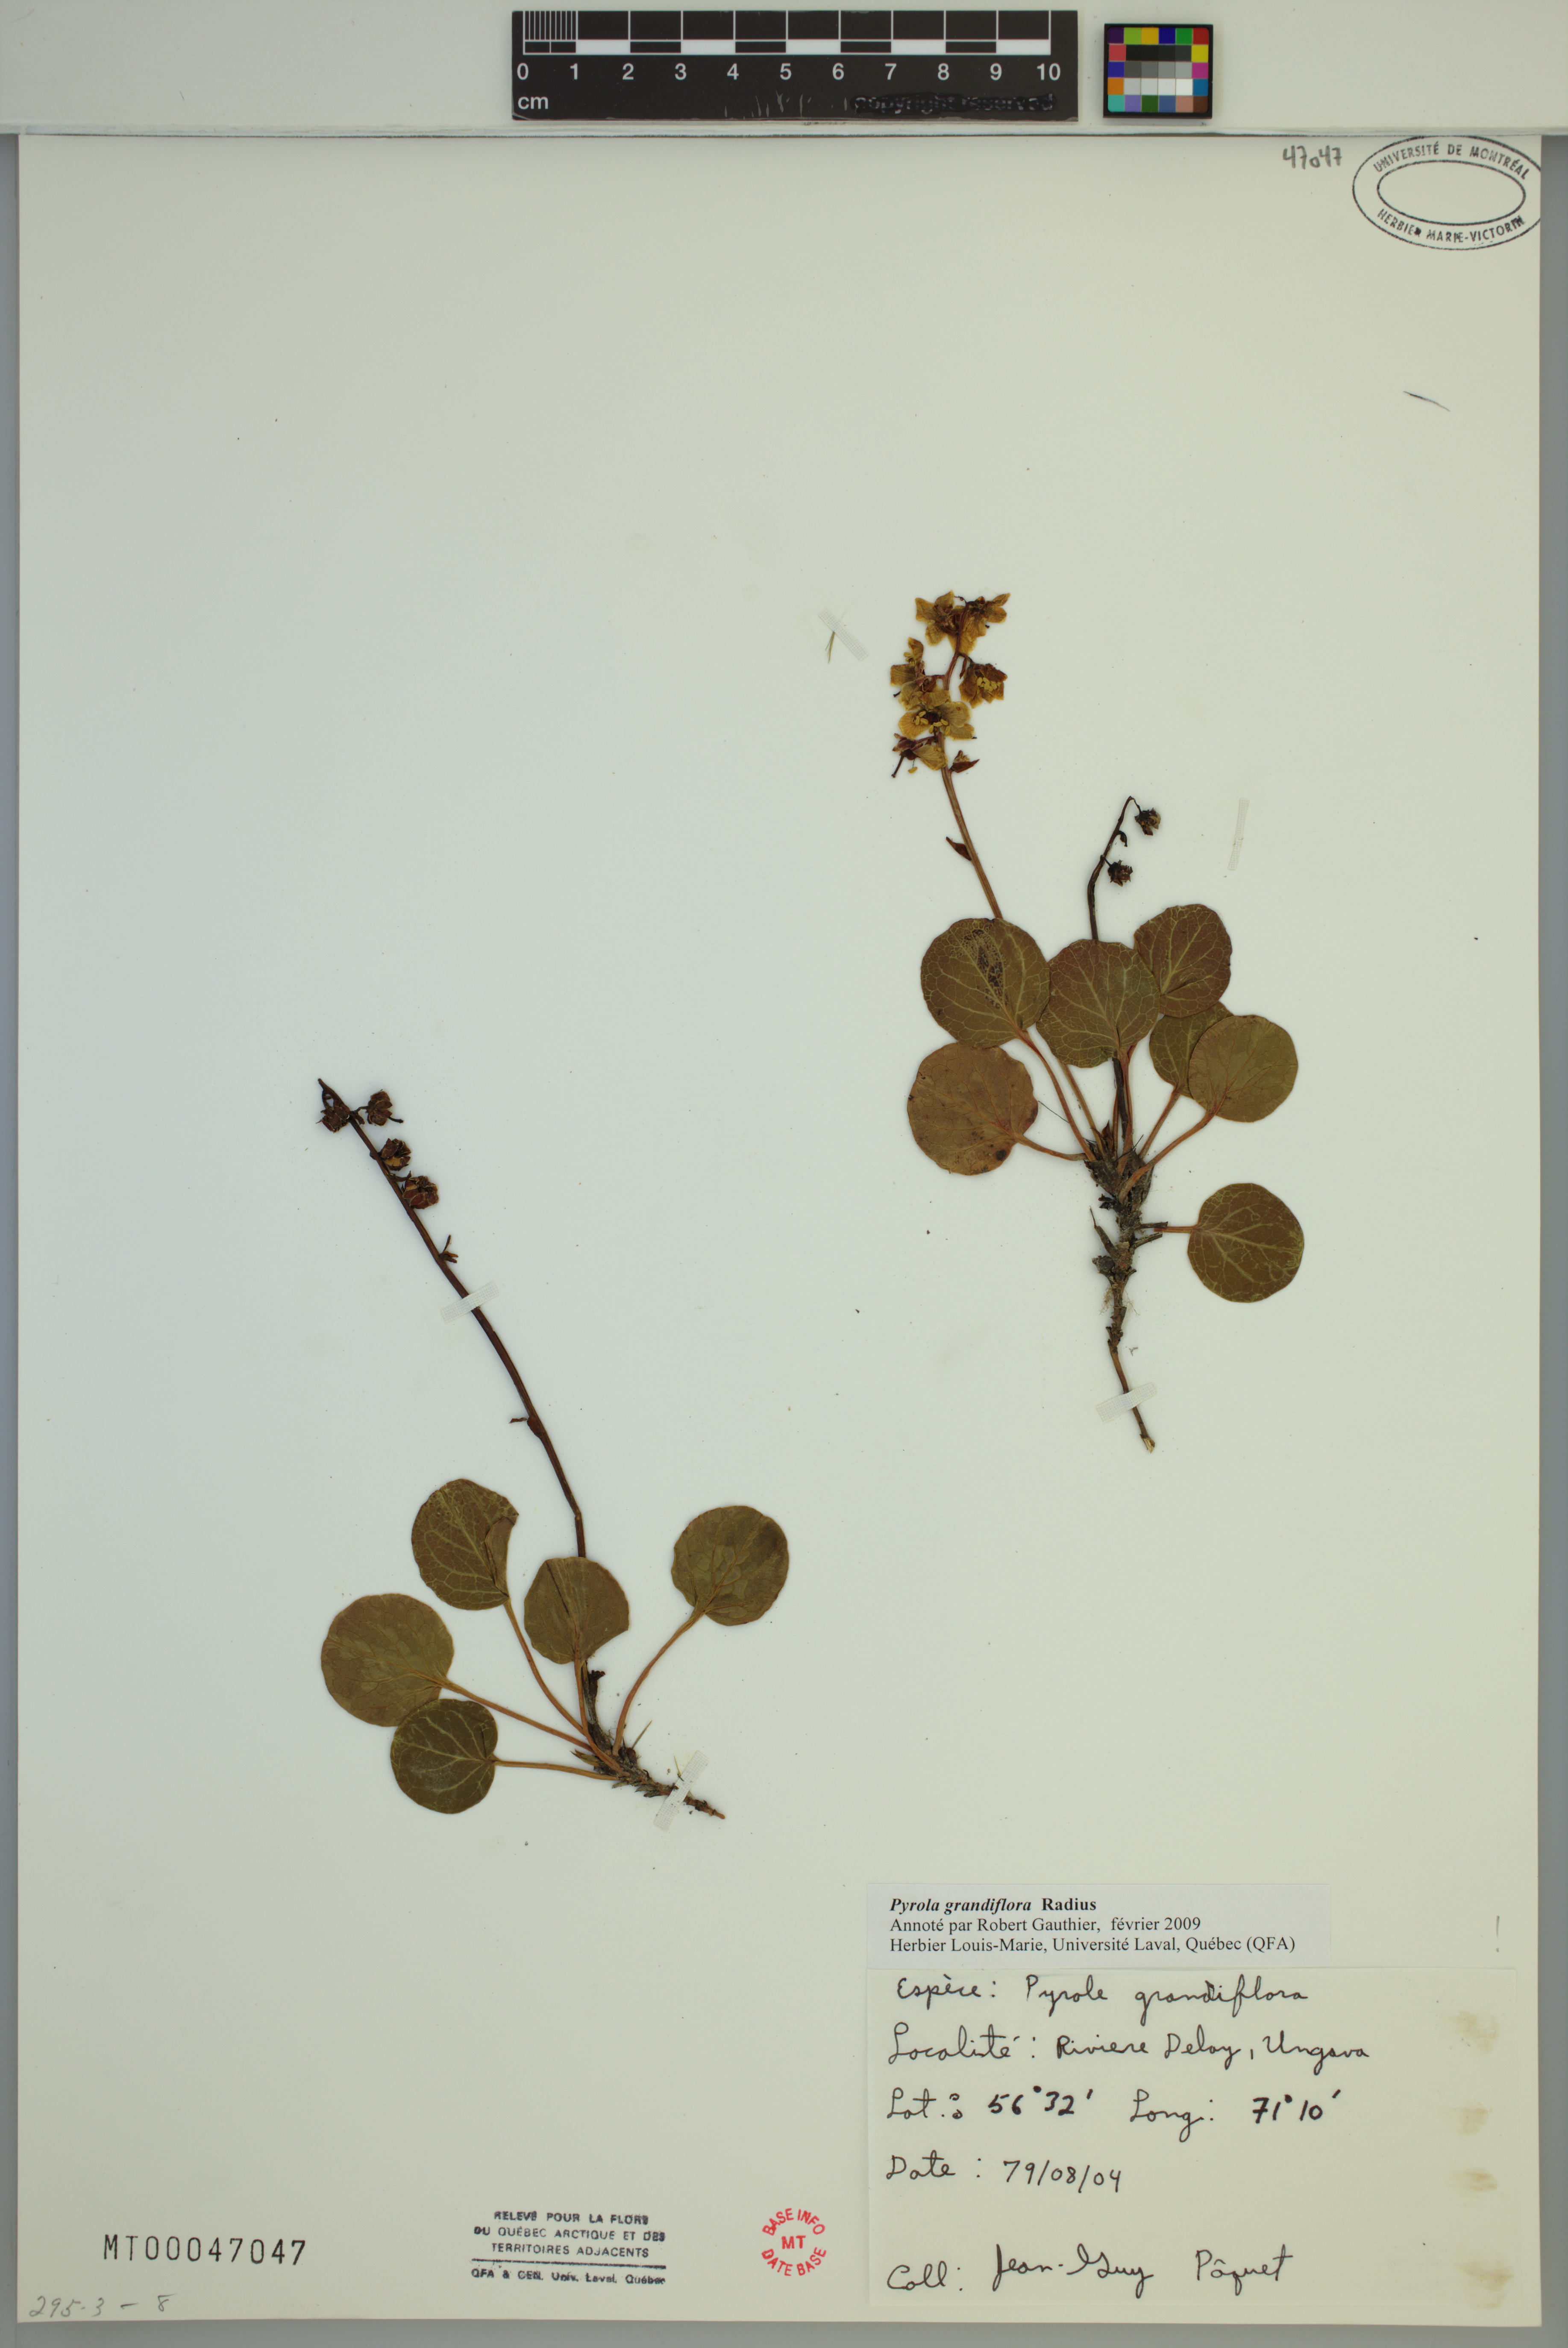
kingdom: Plantae
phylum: Tracheophyta
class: Magnoliopsida
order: Ericales
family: Ericaceae
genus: Pyrola
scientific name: Pyrola grandiflora
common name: Arctic pyrola
